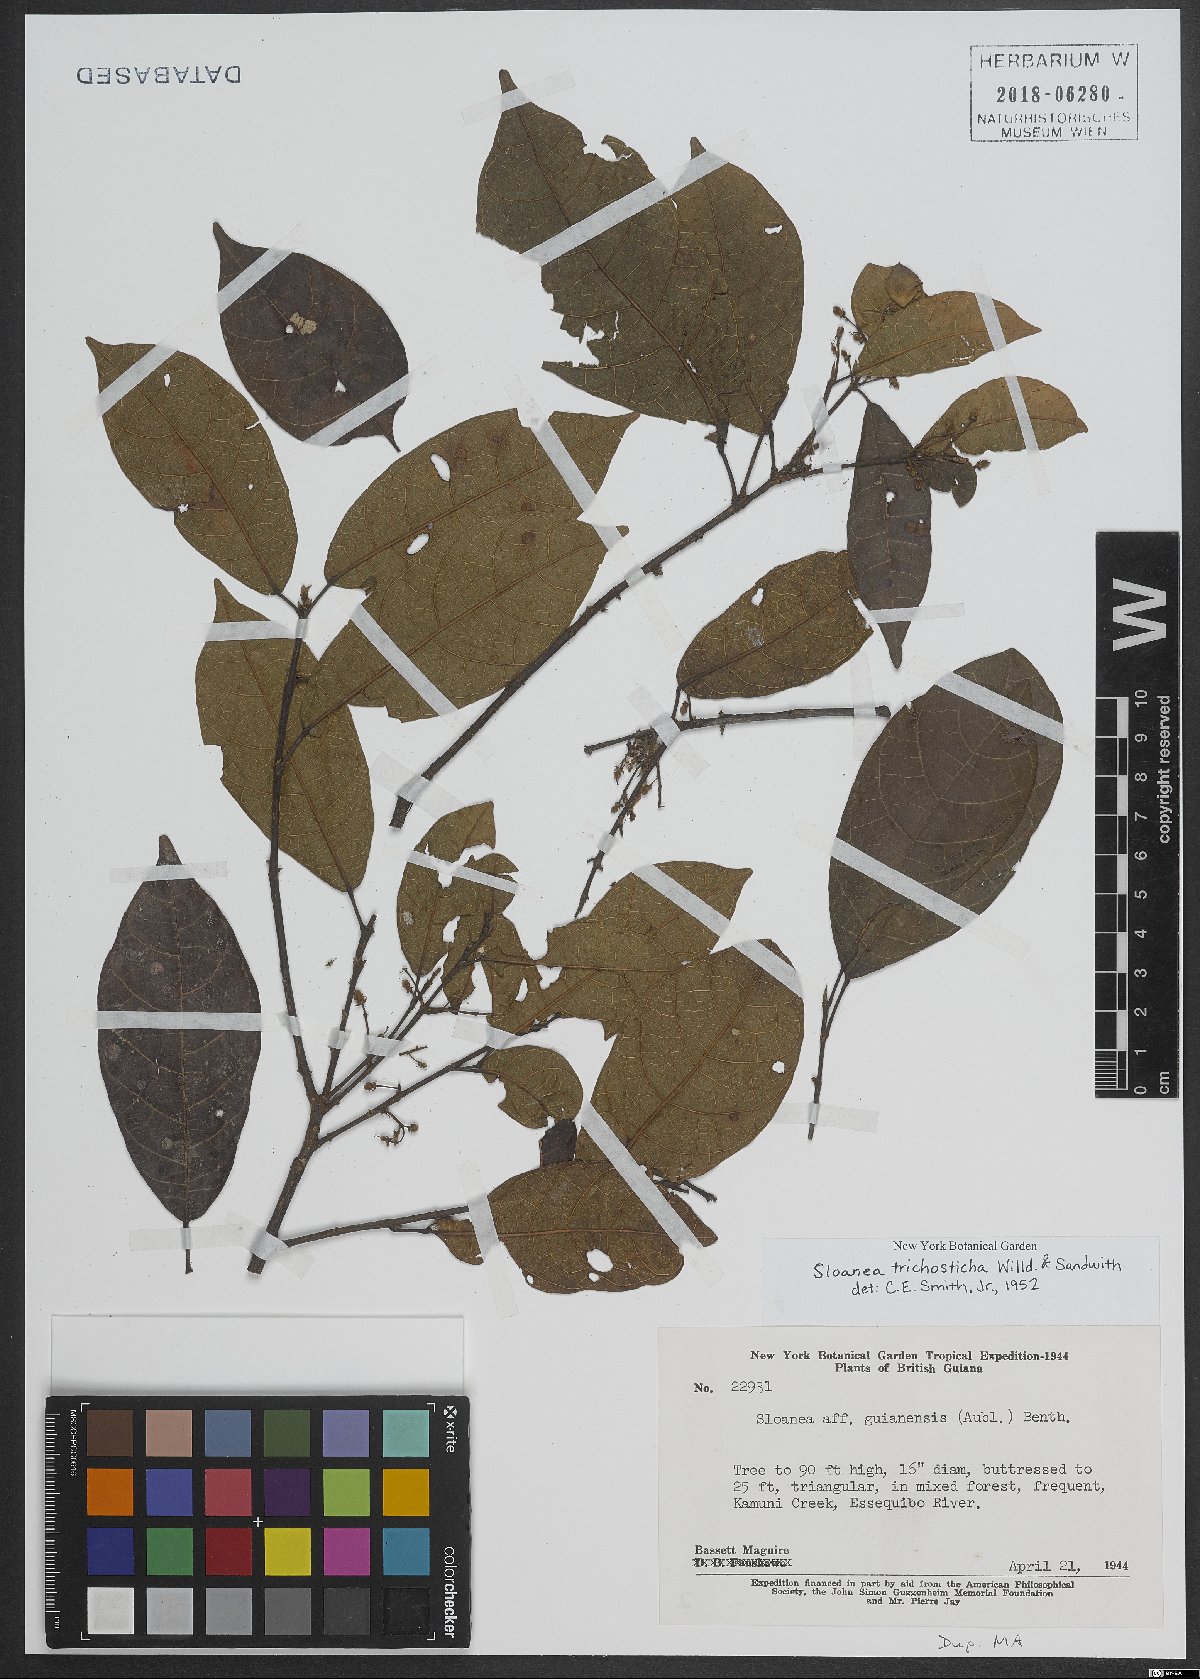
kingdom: Plantae
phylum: Tracheophyta
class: Magnoliopsida
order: Oxalidales
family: Elaeocarpaceae
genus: Sloanea
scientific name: Sloanea trichosticha
